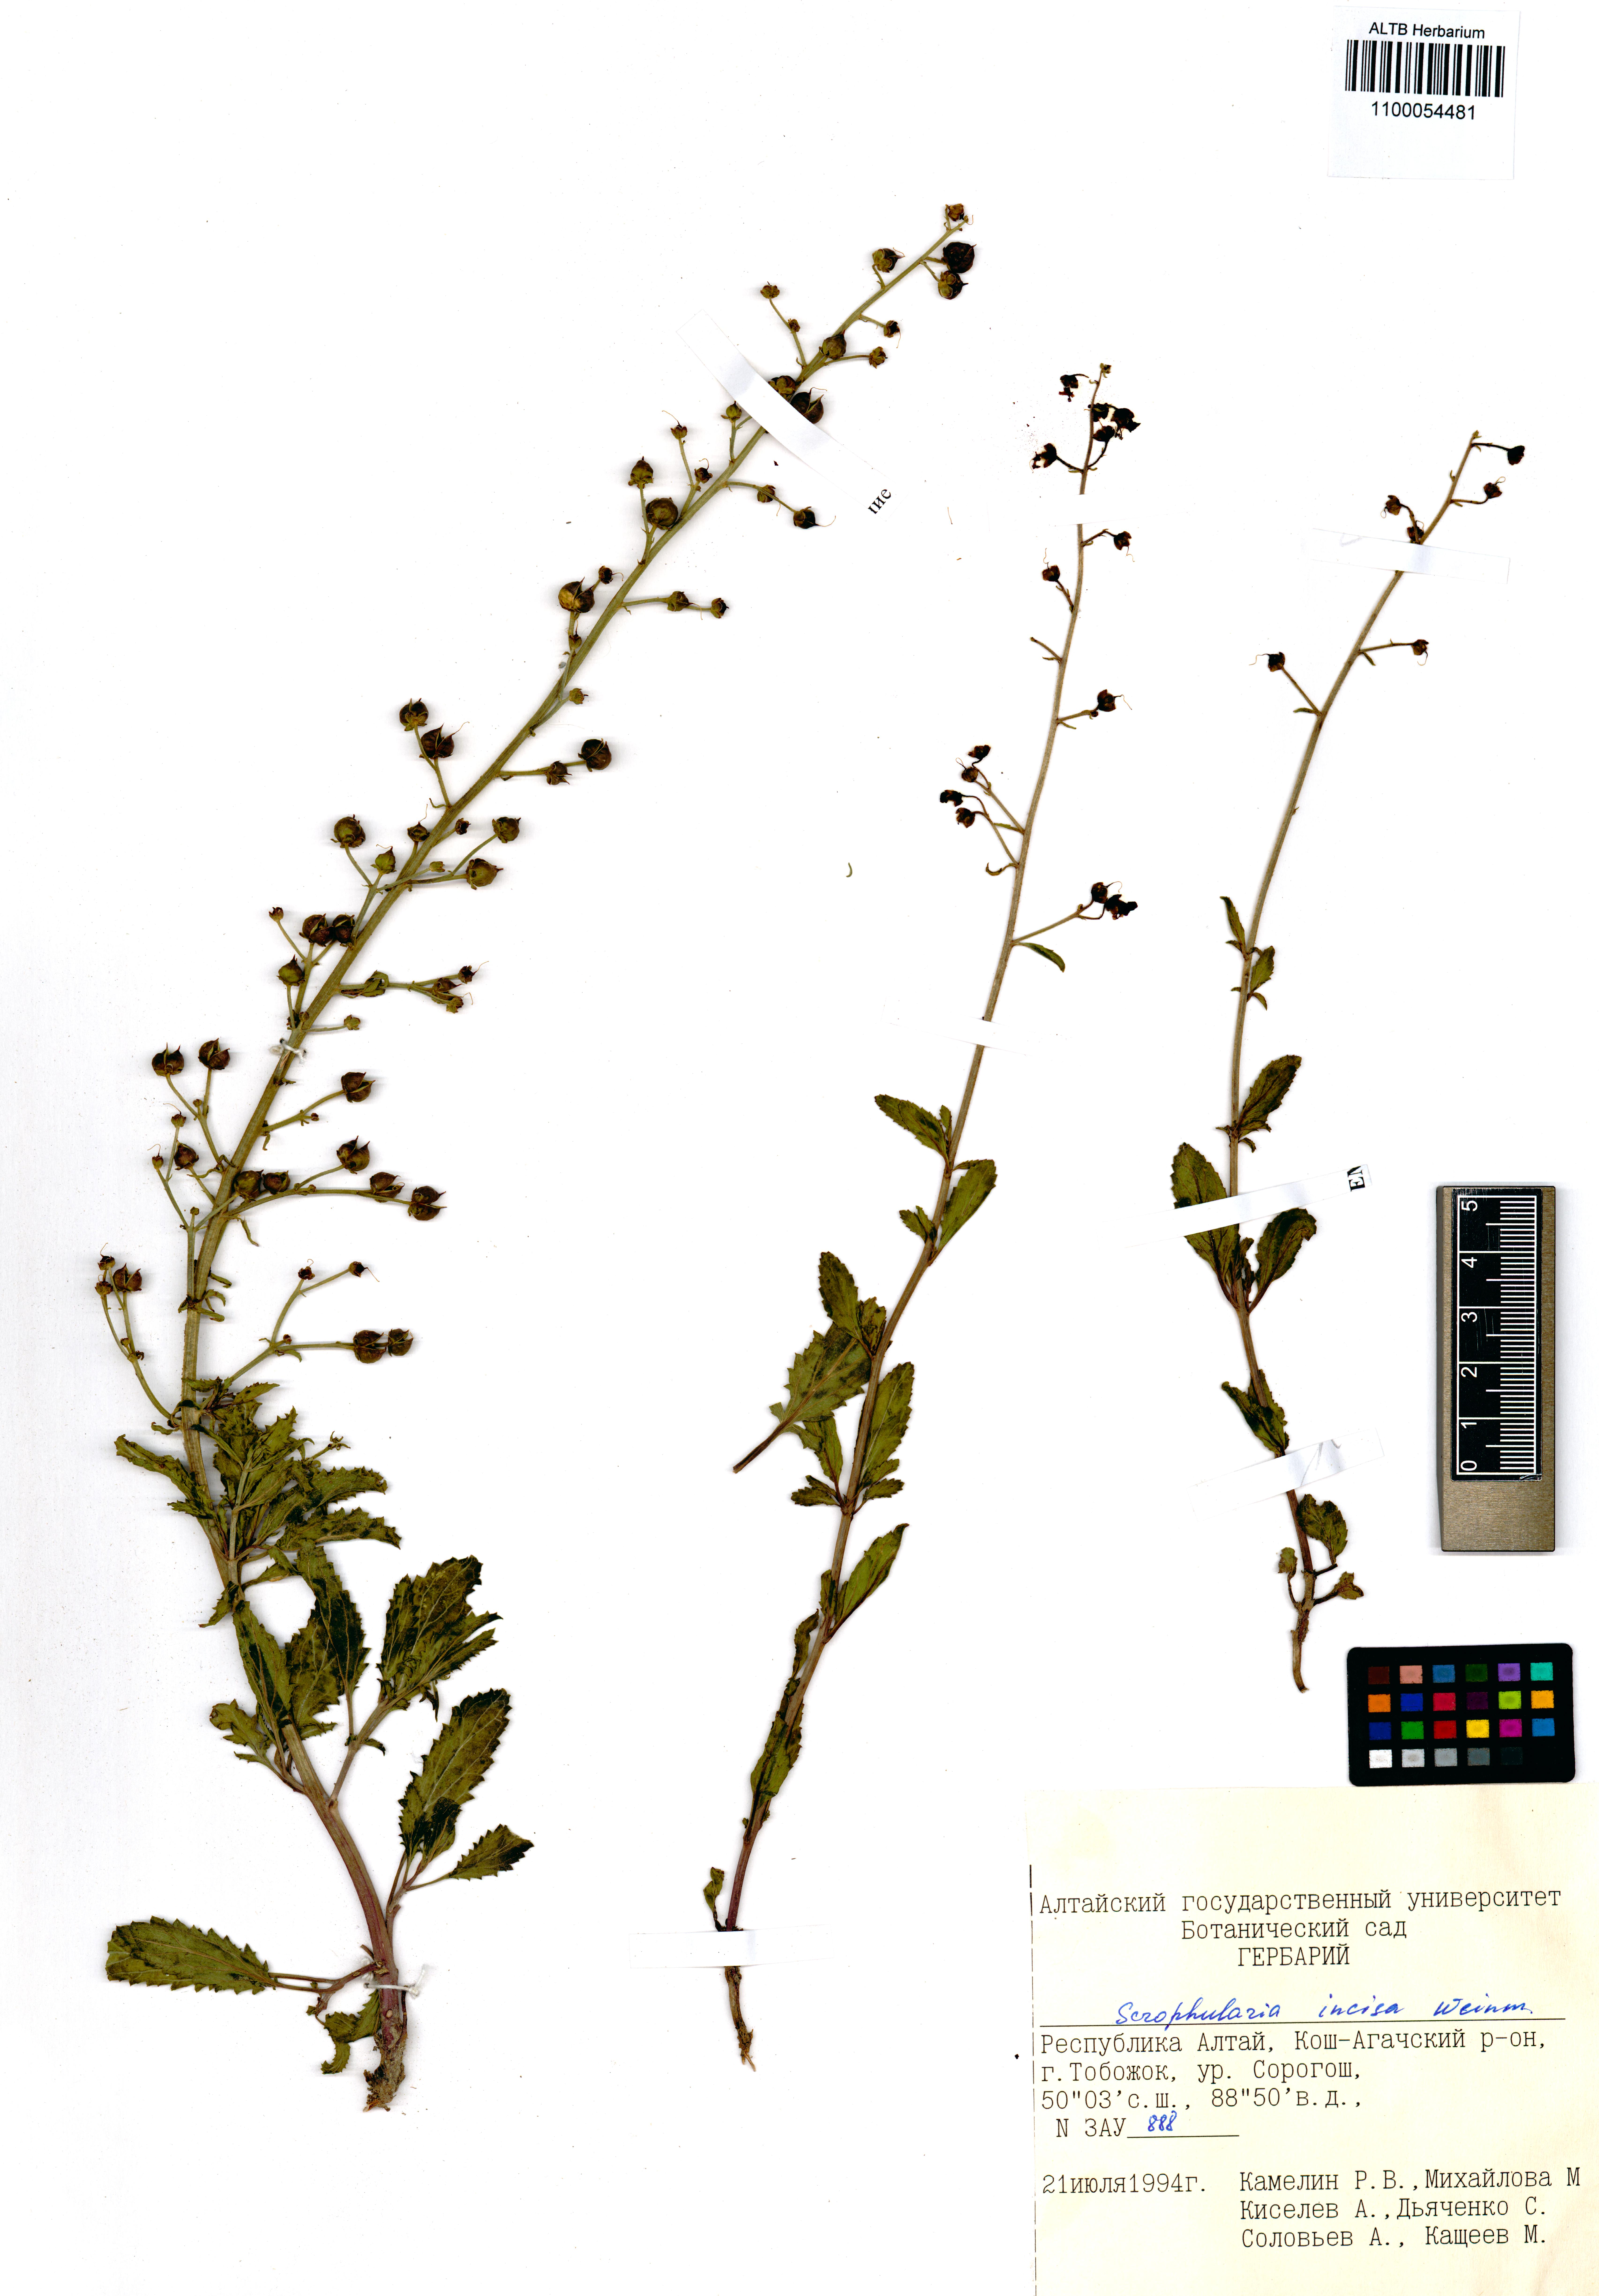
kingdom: Plantae
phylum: Tracheophyta
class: Magnoliopsida
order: Lamiales
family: Scrophulariaceae
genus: Scrophularia
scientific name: Scrophularia incisa
